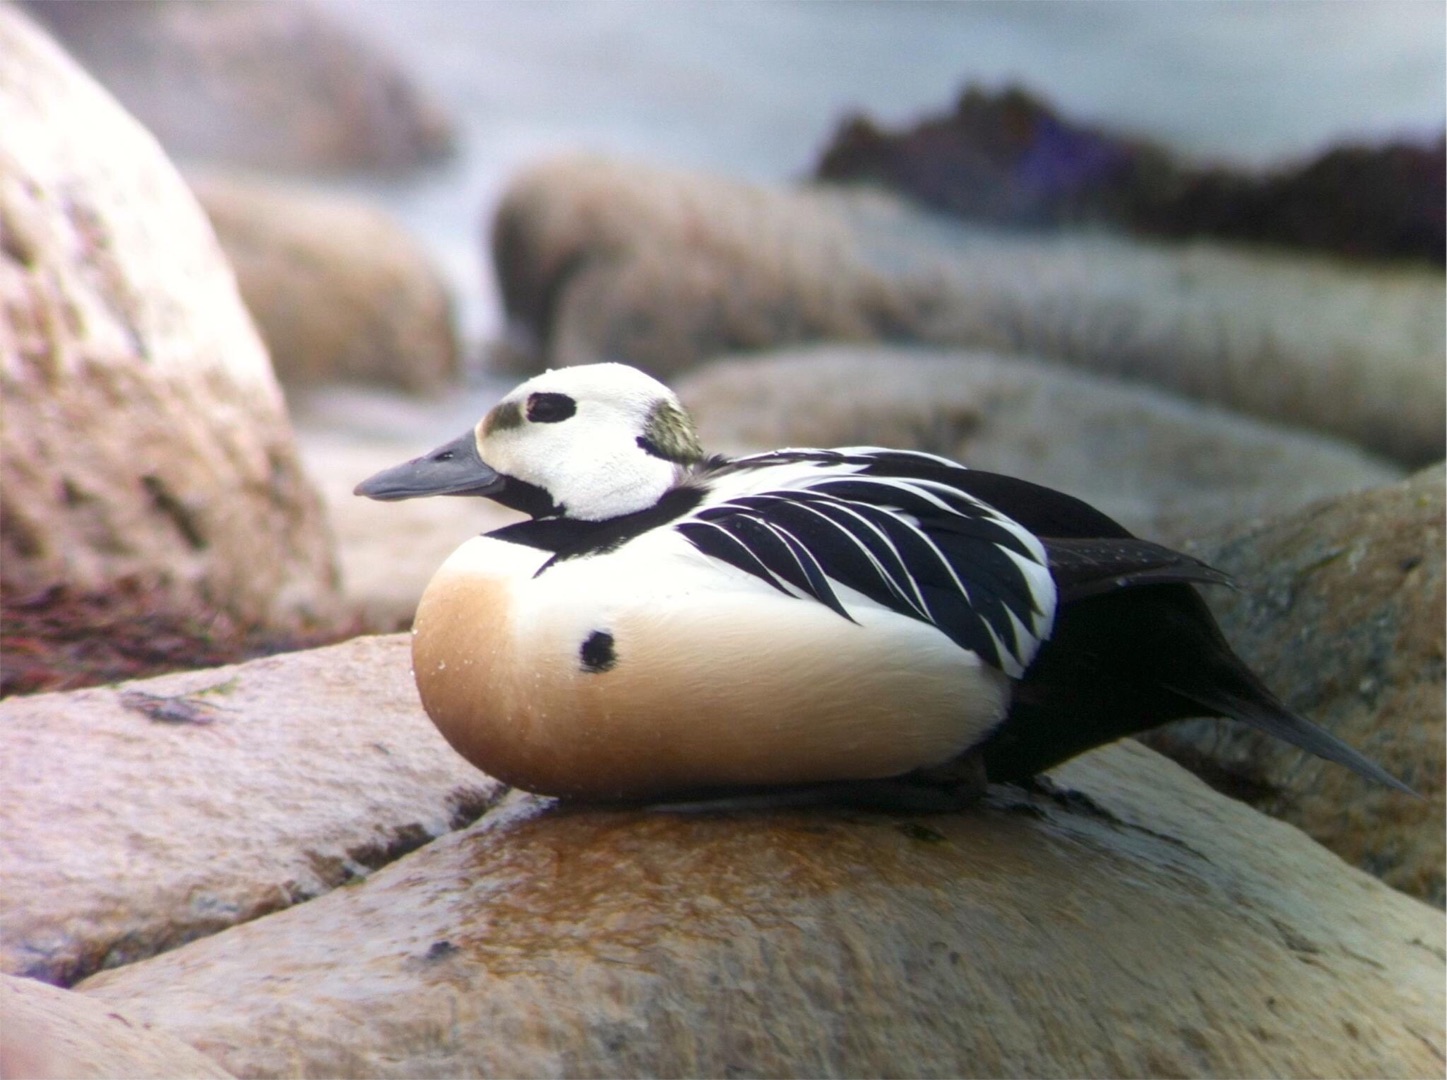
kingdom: Animalia
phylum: Chordata
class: Aves
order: Anseriformes
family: Anatidae
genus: Polysticta
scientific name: Polysticta stelleri
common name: Stellersand
